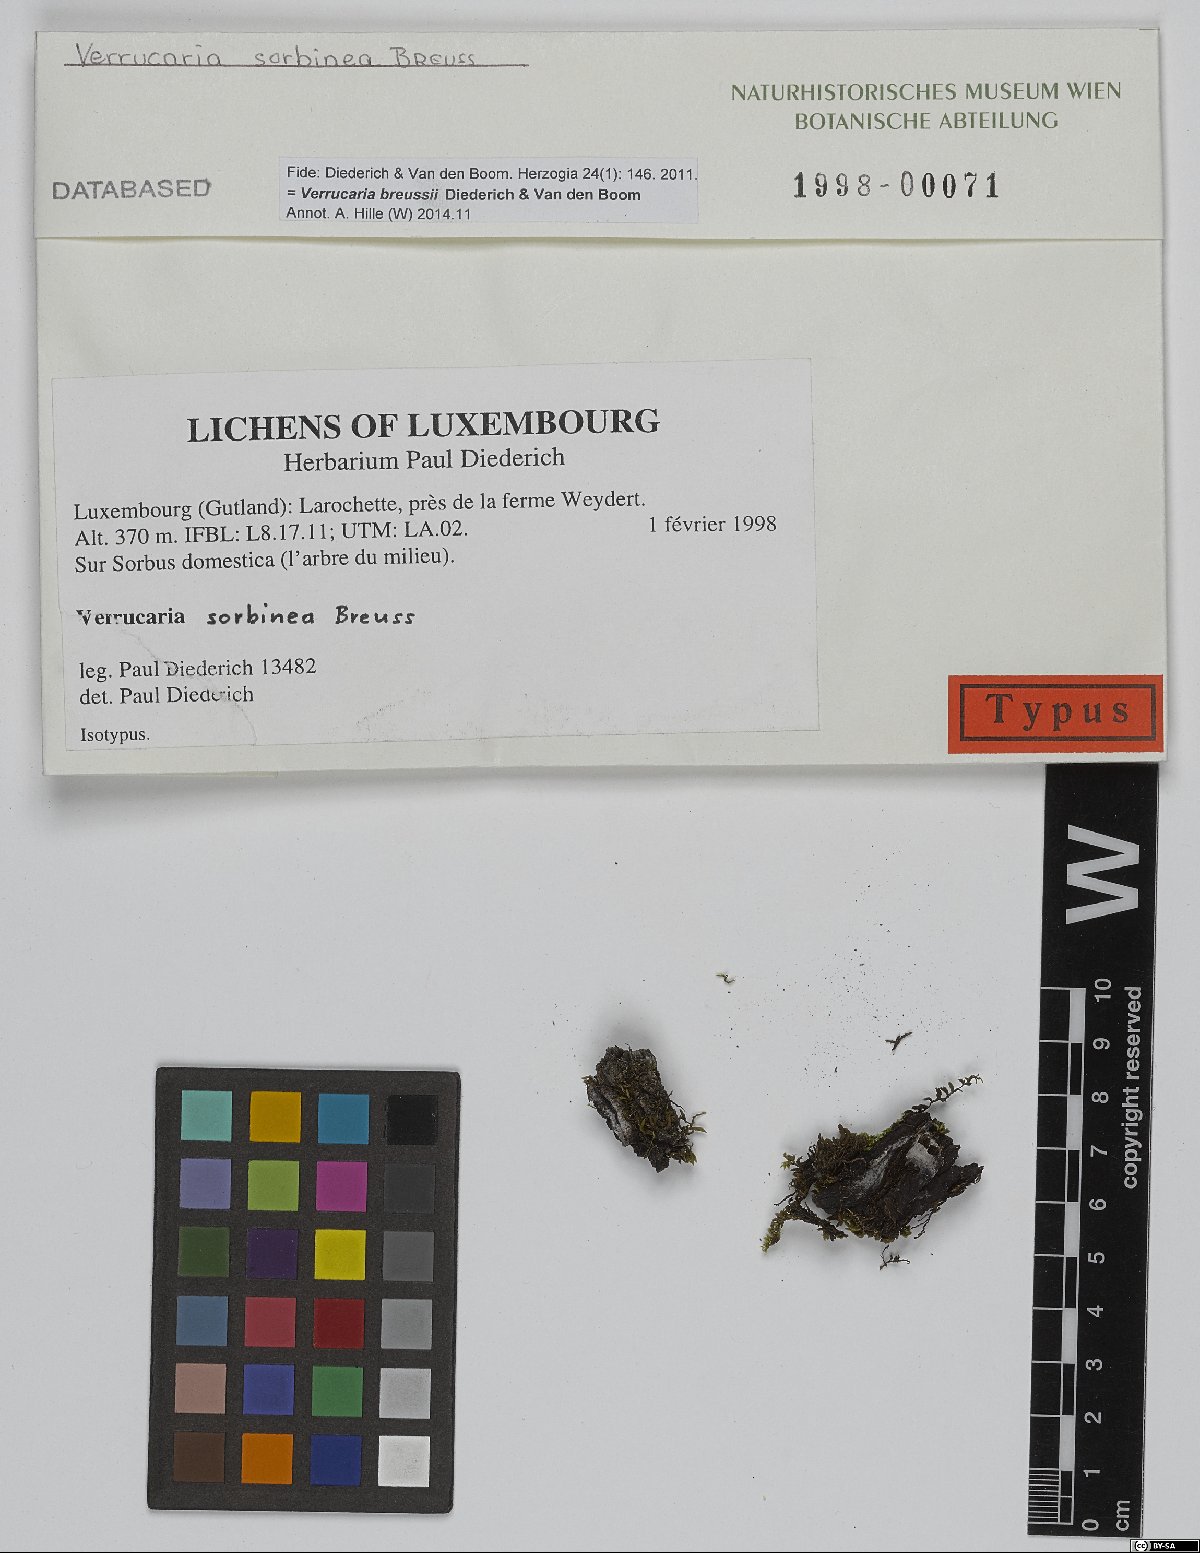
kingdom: Fungi
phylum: Ascomycota
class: Eurotiomycetes
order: Verrucariales
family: Verrucariaceae
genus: Verrucaria
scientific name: Verrucaria breussii
